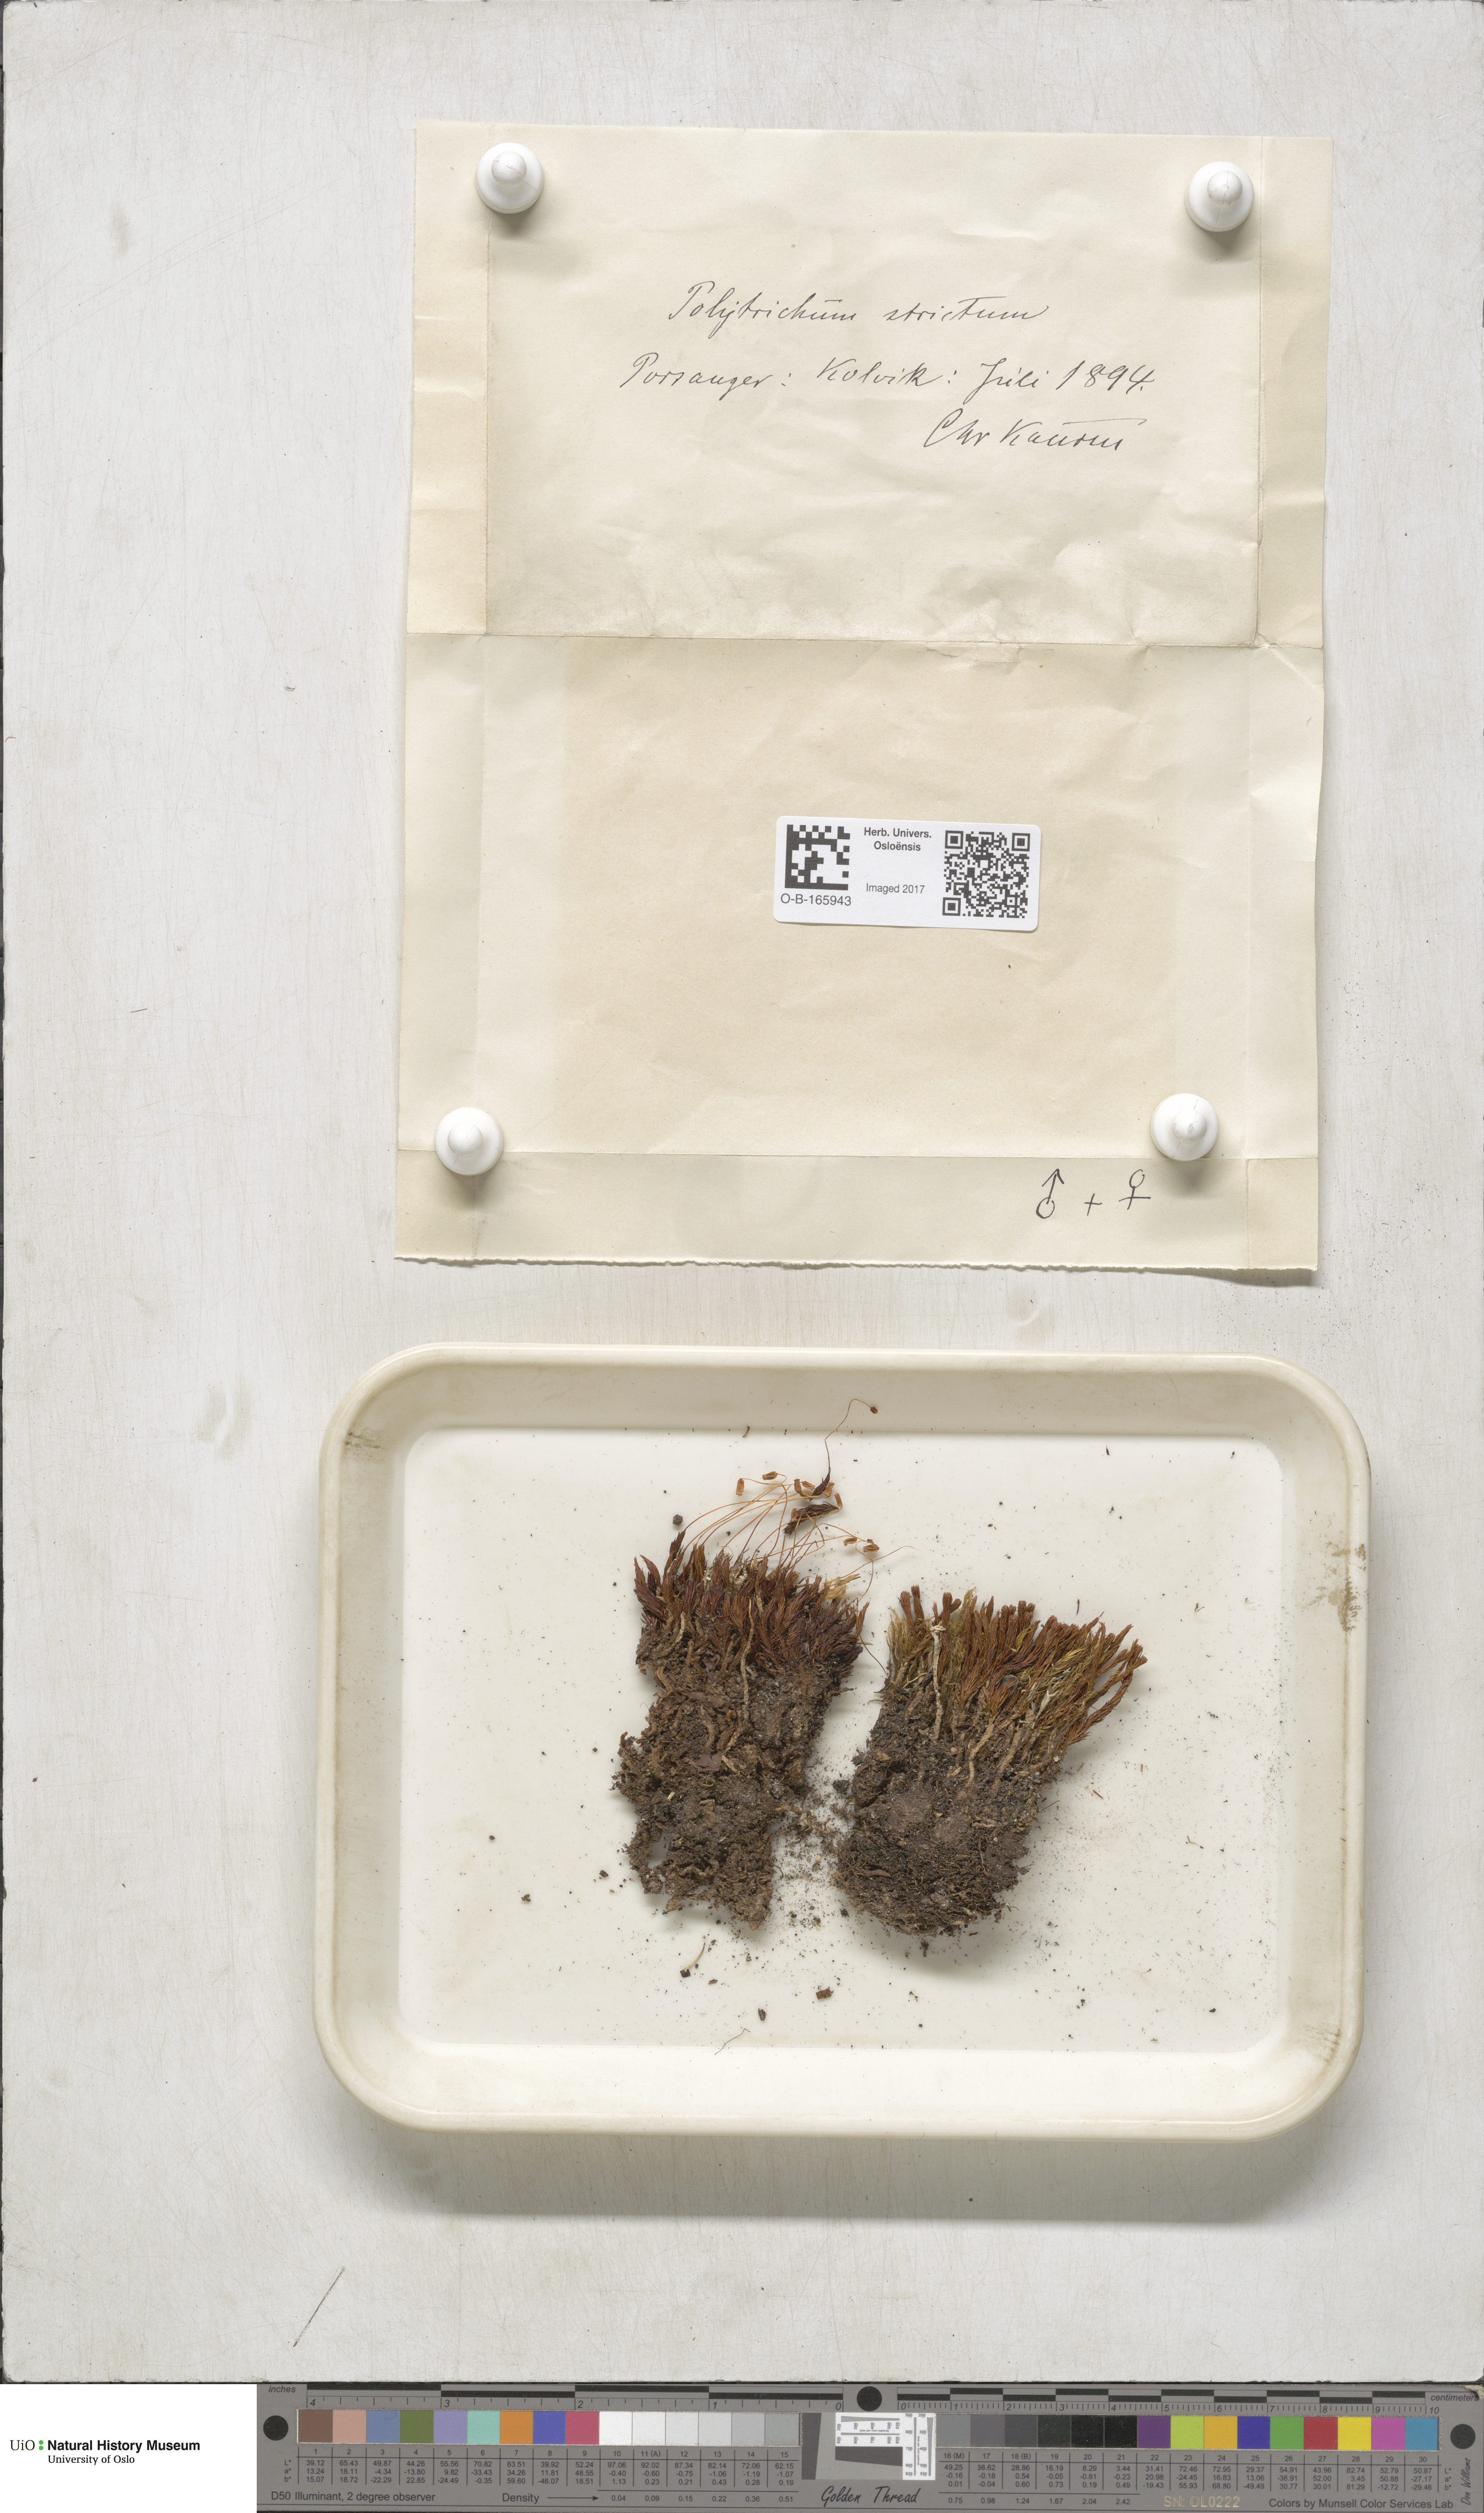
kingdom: Plantae
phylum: Bryophyta
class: Polytrichopsida
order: Polytrichales
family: Polytrichaceae
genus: Polytrichum
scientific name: Polytrichum strictum
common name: Bog haircap moss
